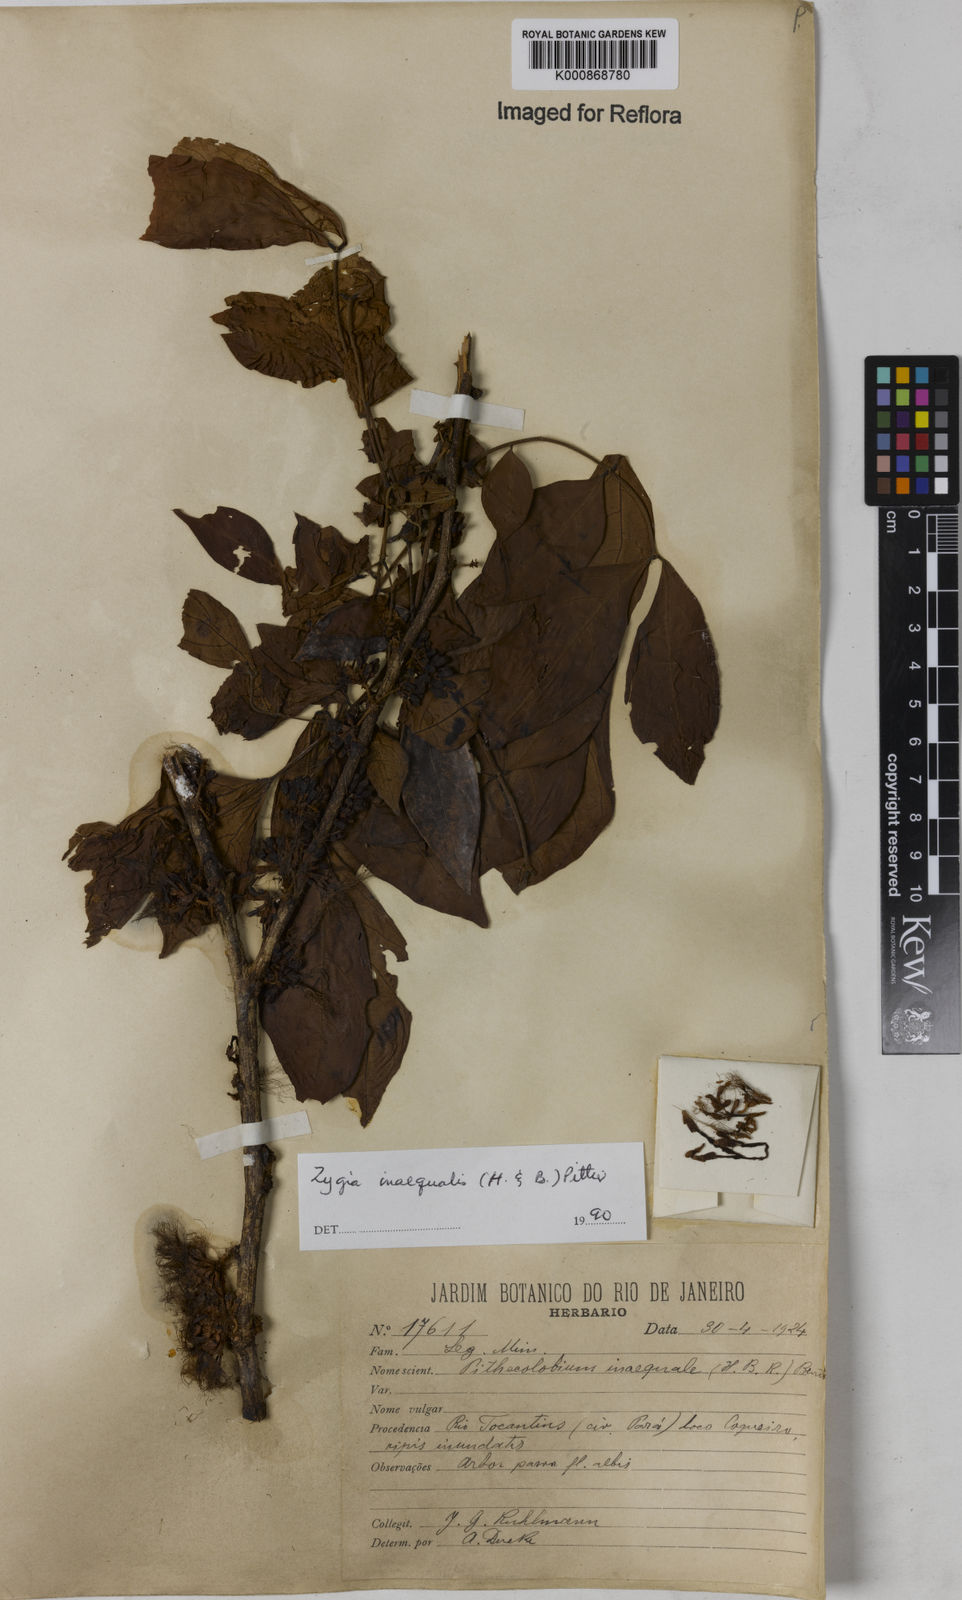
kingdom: Plantae
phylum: Tracheophyta
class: Magnoliopsida
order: Fabales
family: Fabaceae
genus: Zygia
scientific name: Zygia inaequalis
